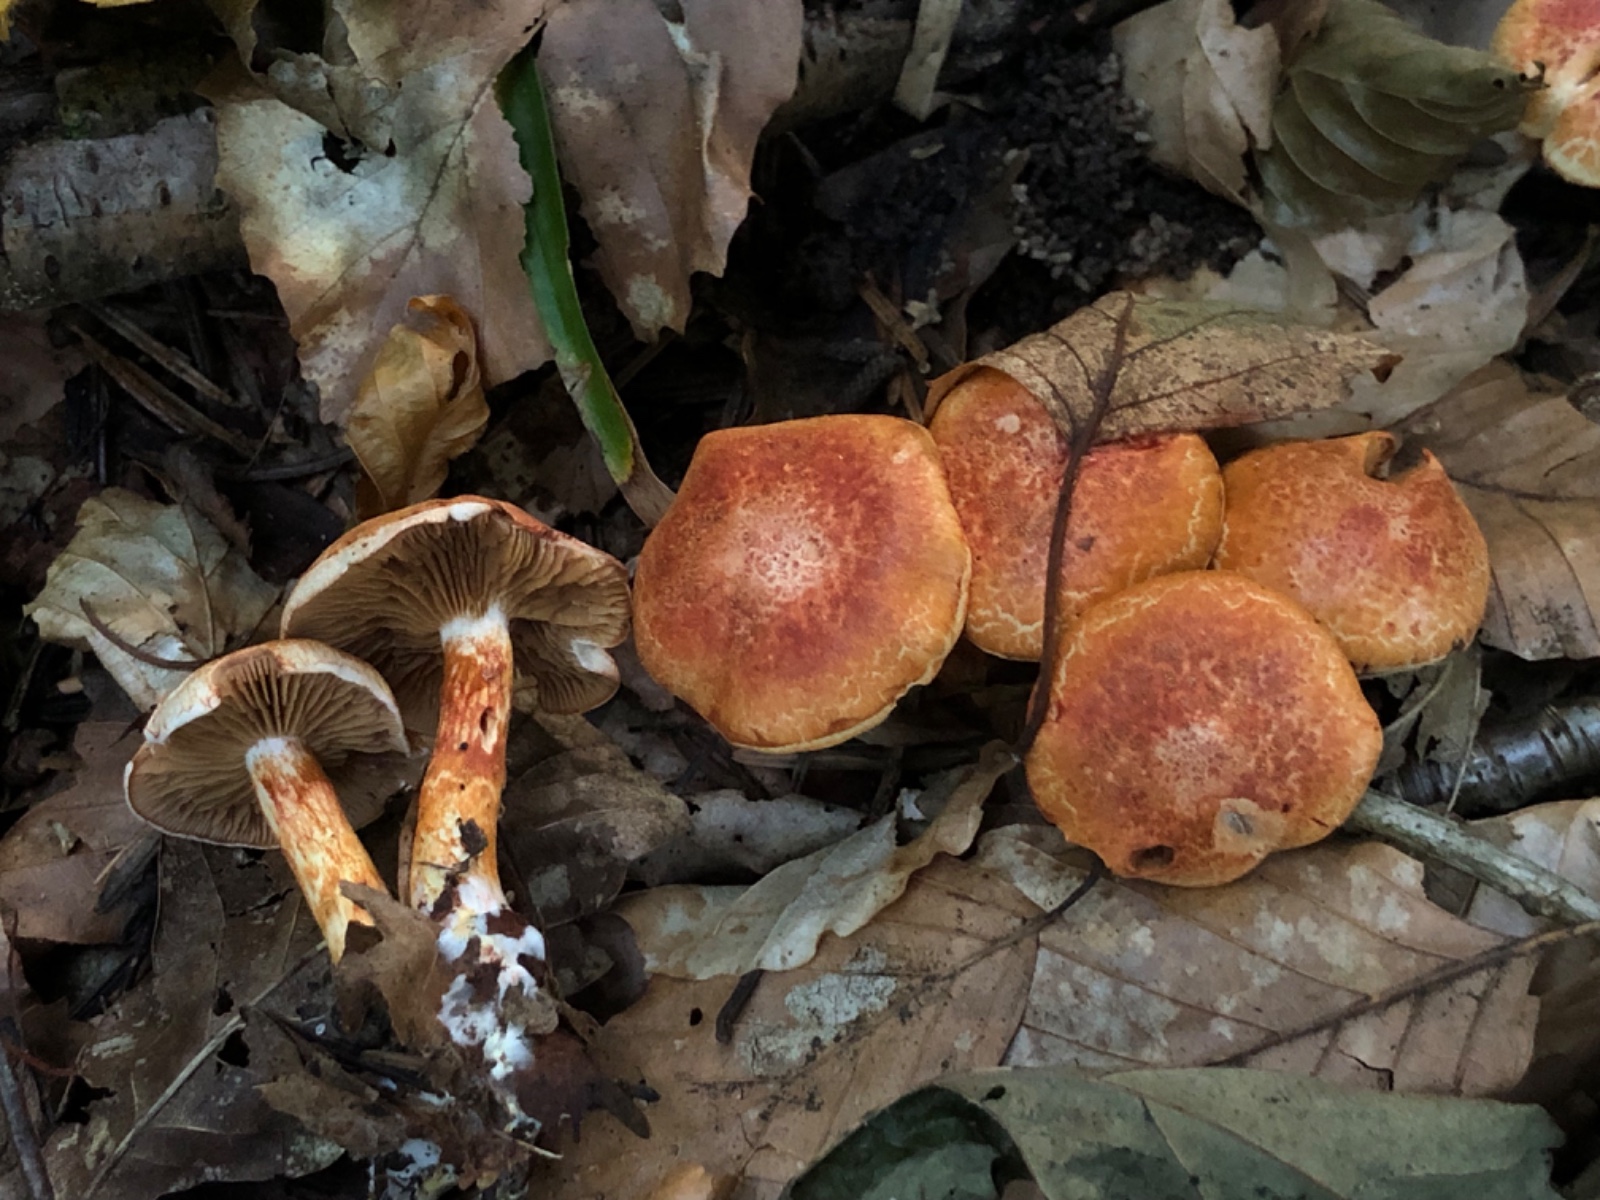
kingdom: Fungi
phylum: Basidiomycota
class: Agaricomycetes
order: Agaricales
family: Cortinariaceae
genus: Cortinarius
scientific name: Cortinarius bolaris
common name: cinnoberskællet slørhat
